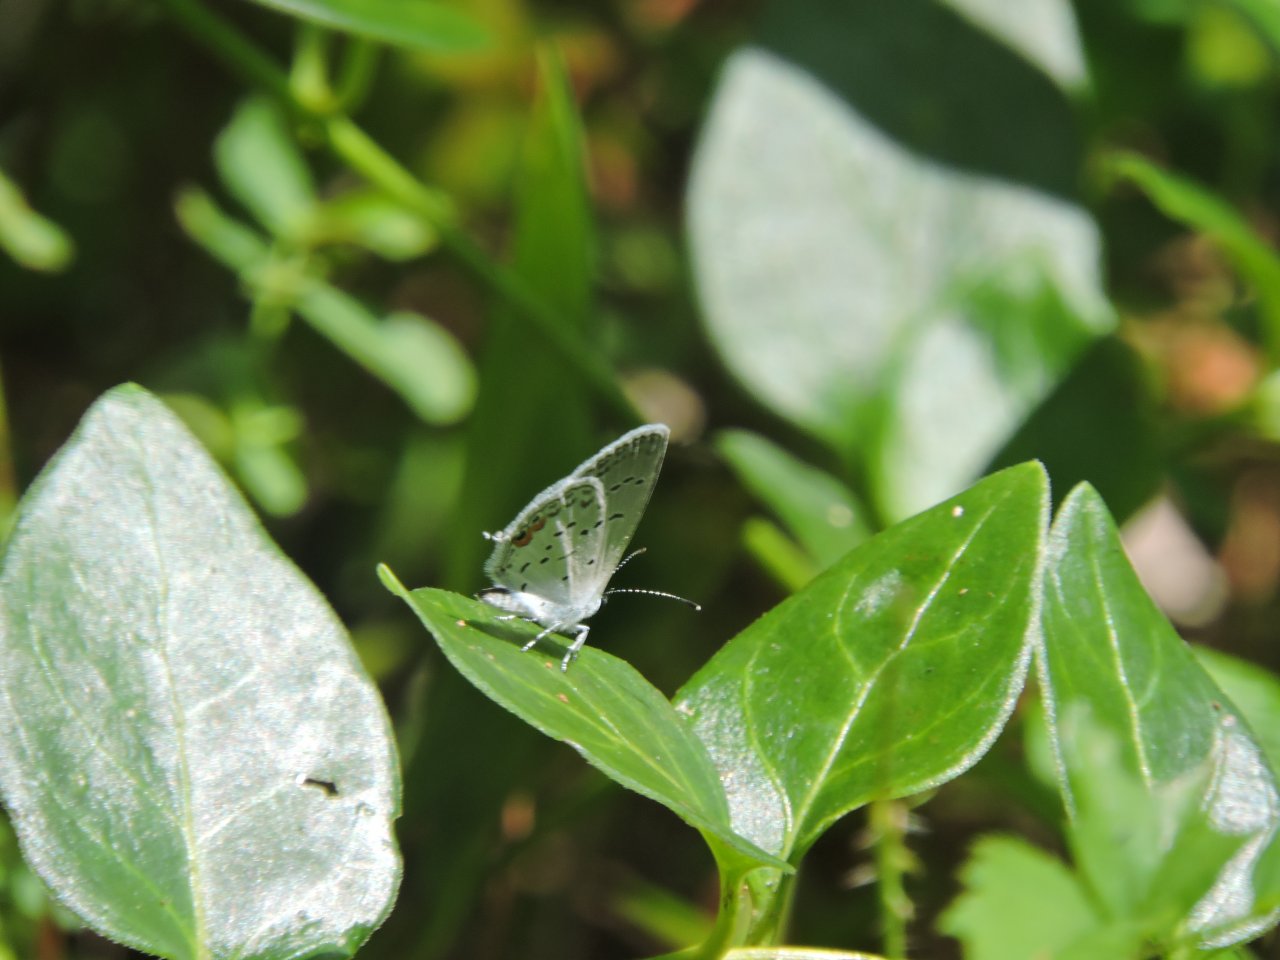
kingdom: Animalia
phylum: Arthropoda
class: Insecta
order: Lepidoptera
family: Lycaenidae
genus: Elkalyce
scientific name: Elkalyce comyntas
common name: Eastern Tailed-Blue
